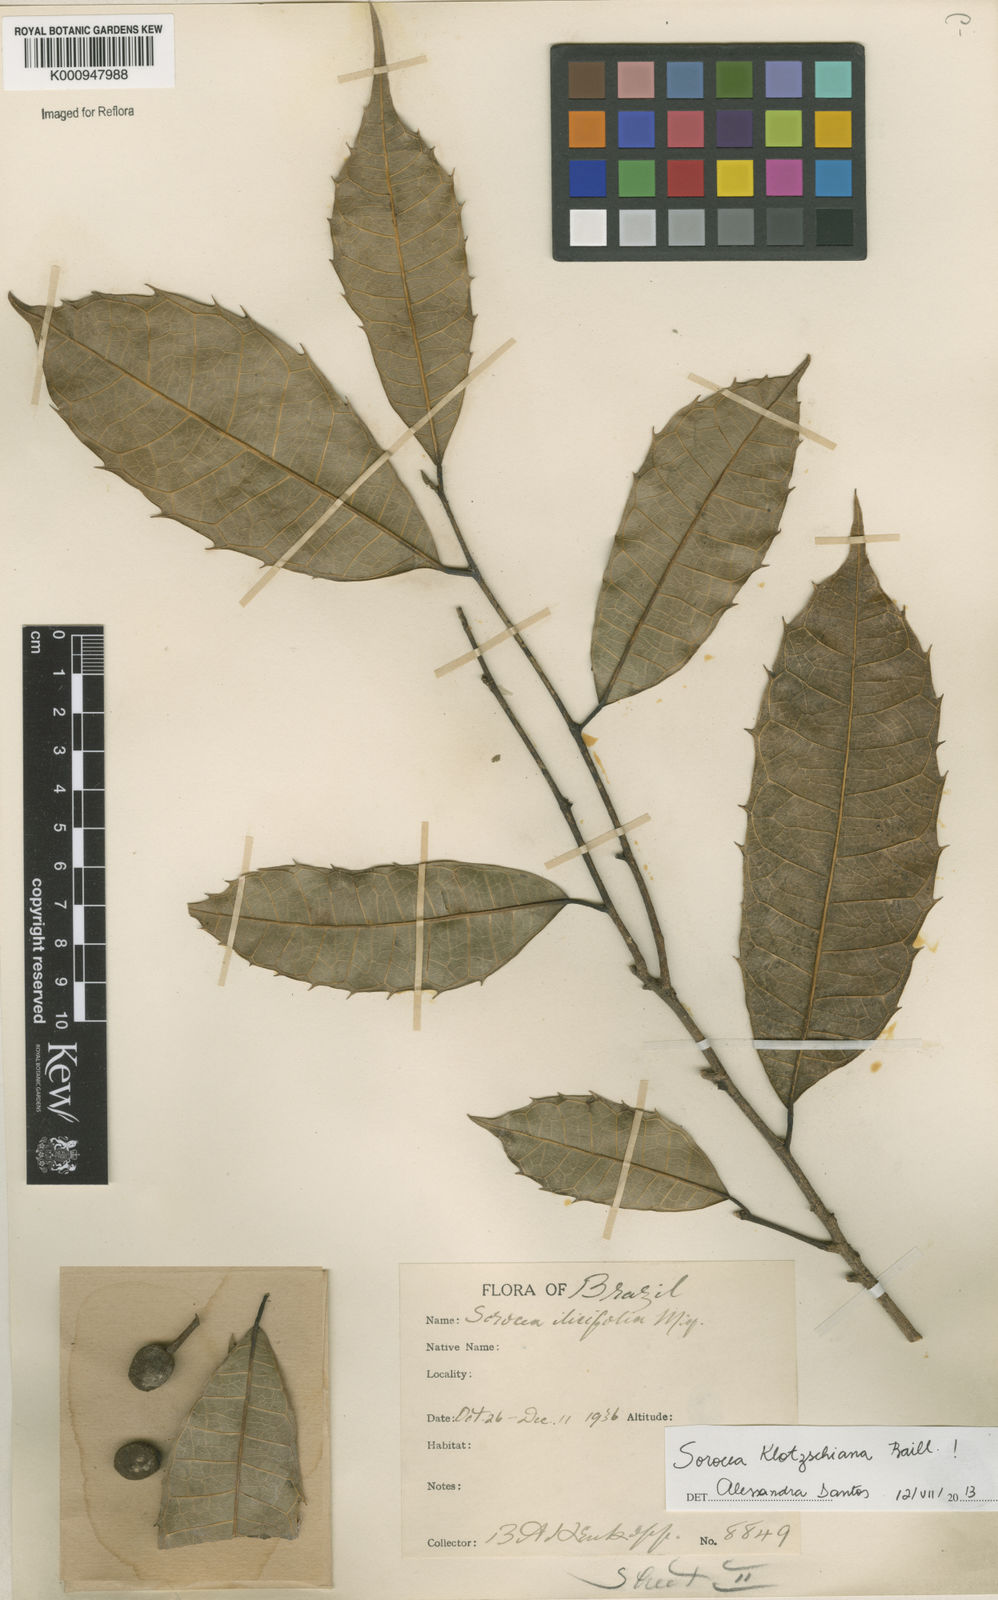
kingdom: Plantae
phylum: Tracheophyta
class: Magnoliopsida
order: Rosales
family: Moraceae
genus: Sorocea
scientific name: Sorocea guilleminiana
